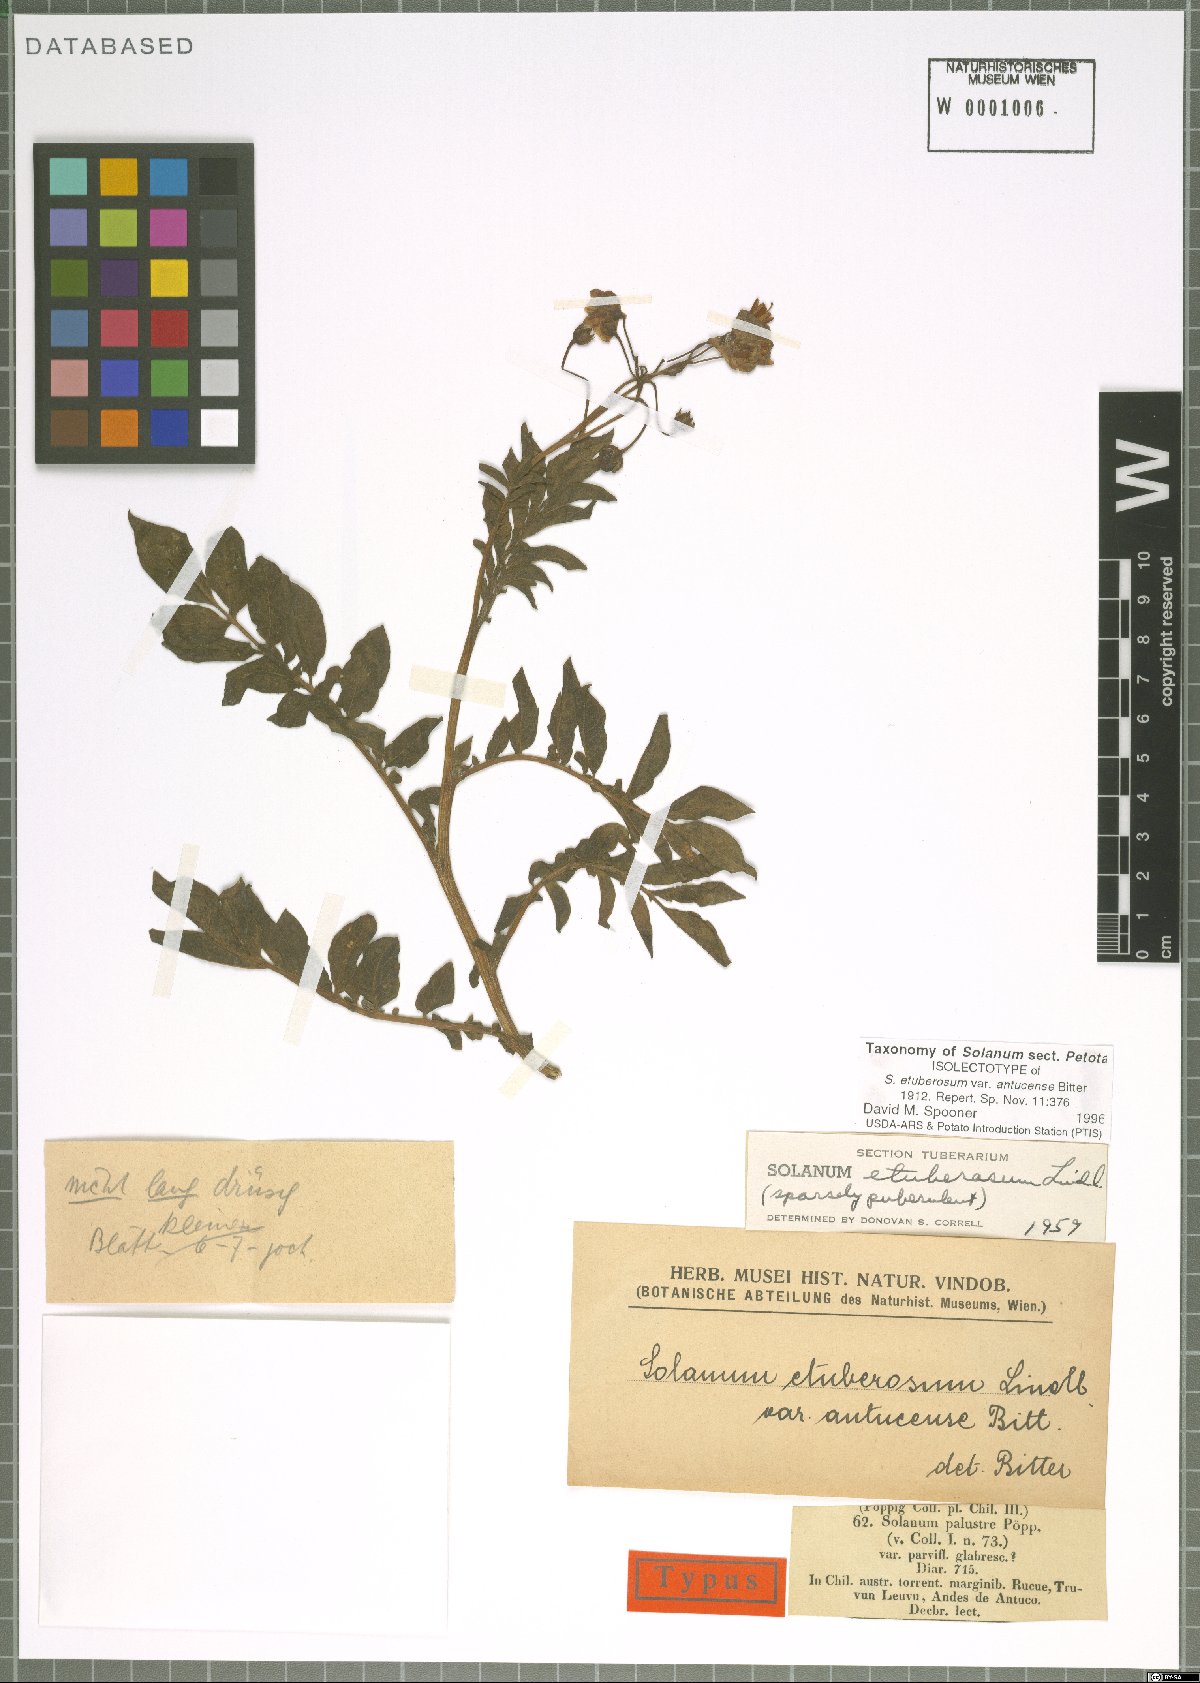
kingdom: Plantae
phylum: Tracheophyta
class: Magnoliopsida
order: Solanales
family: Solanaceae
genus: Solanum
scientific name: Solanum etuberosum
